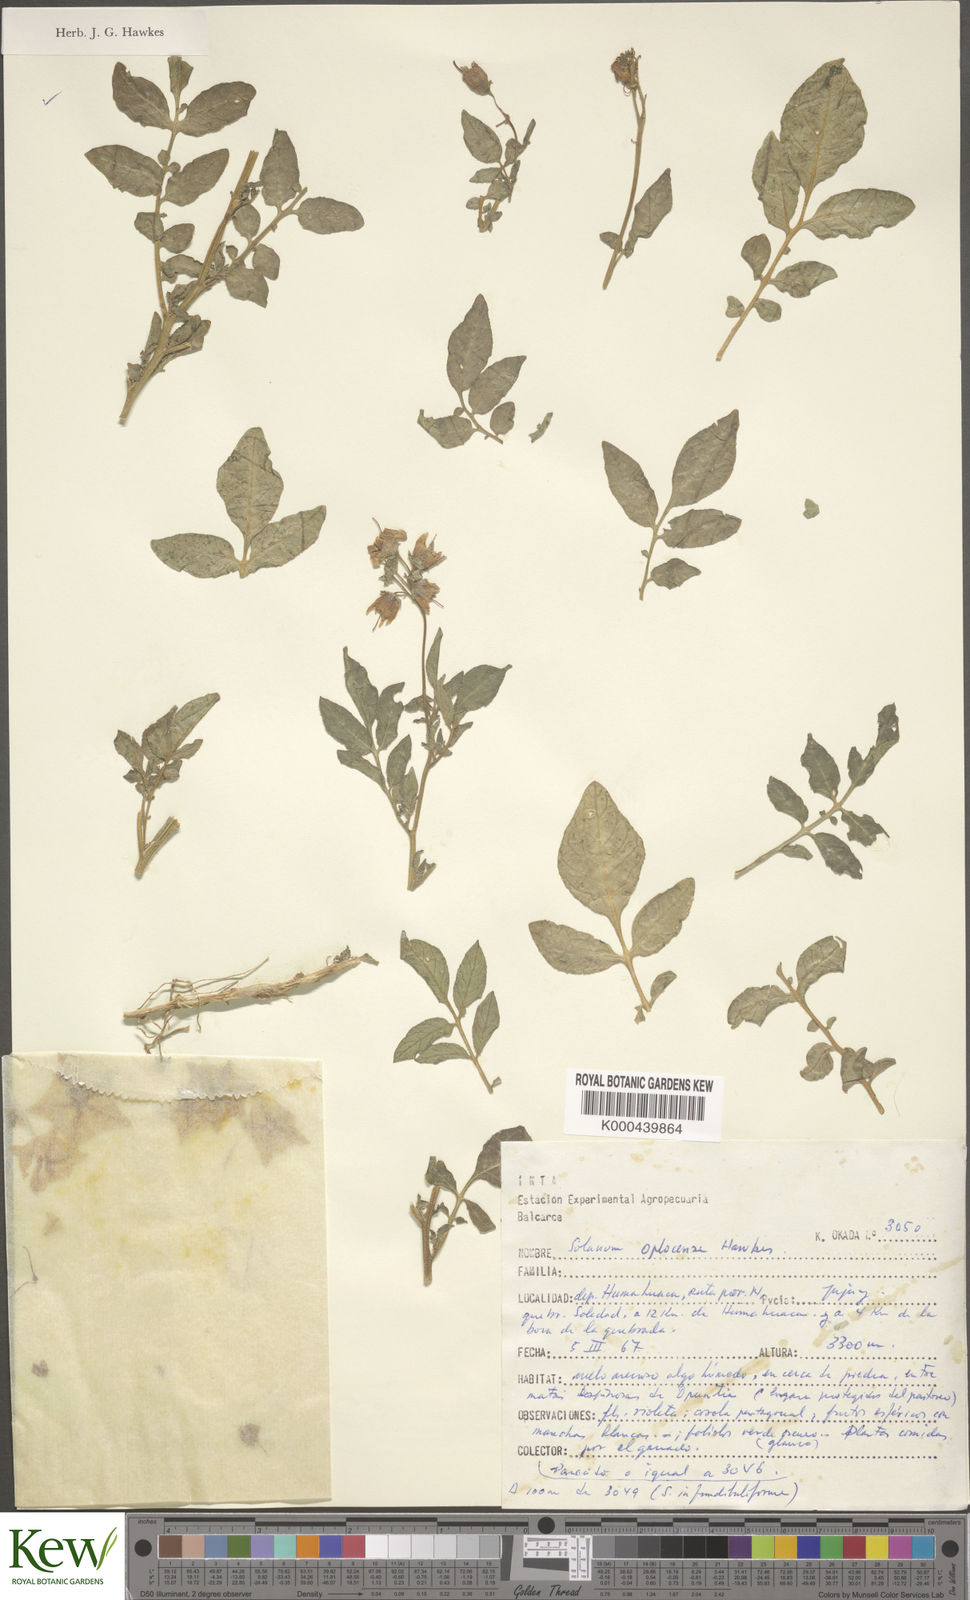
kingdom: Plantae
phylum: Tracheophyta
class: Magnoliopsida
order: Solanales
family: Solanaceae
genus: Solanum
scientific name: Solanum brevicaule
